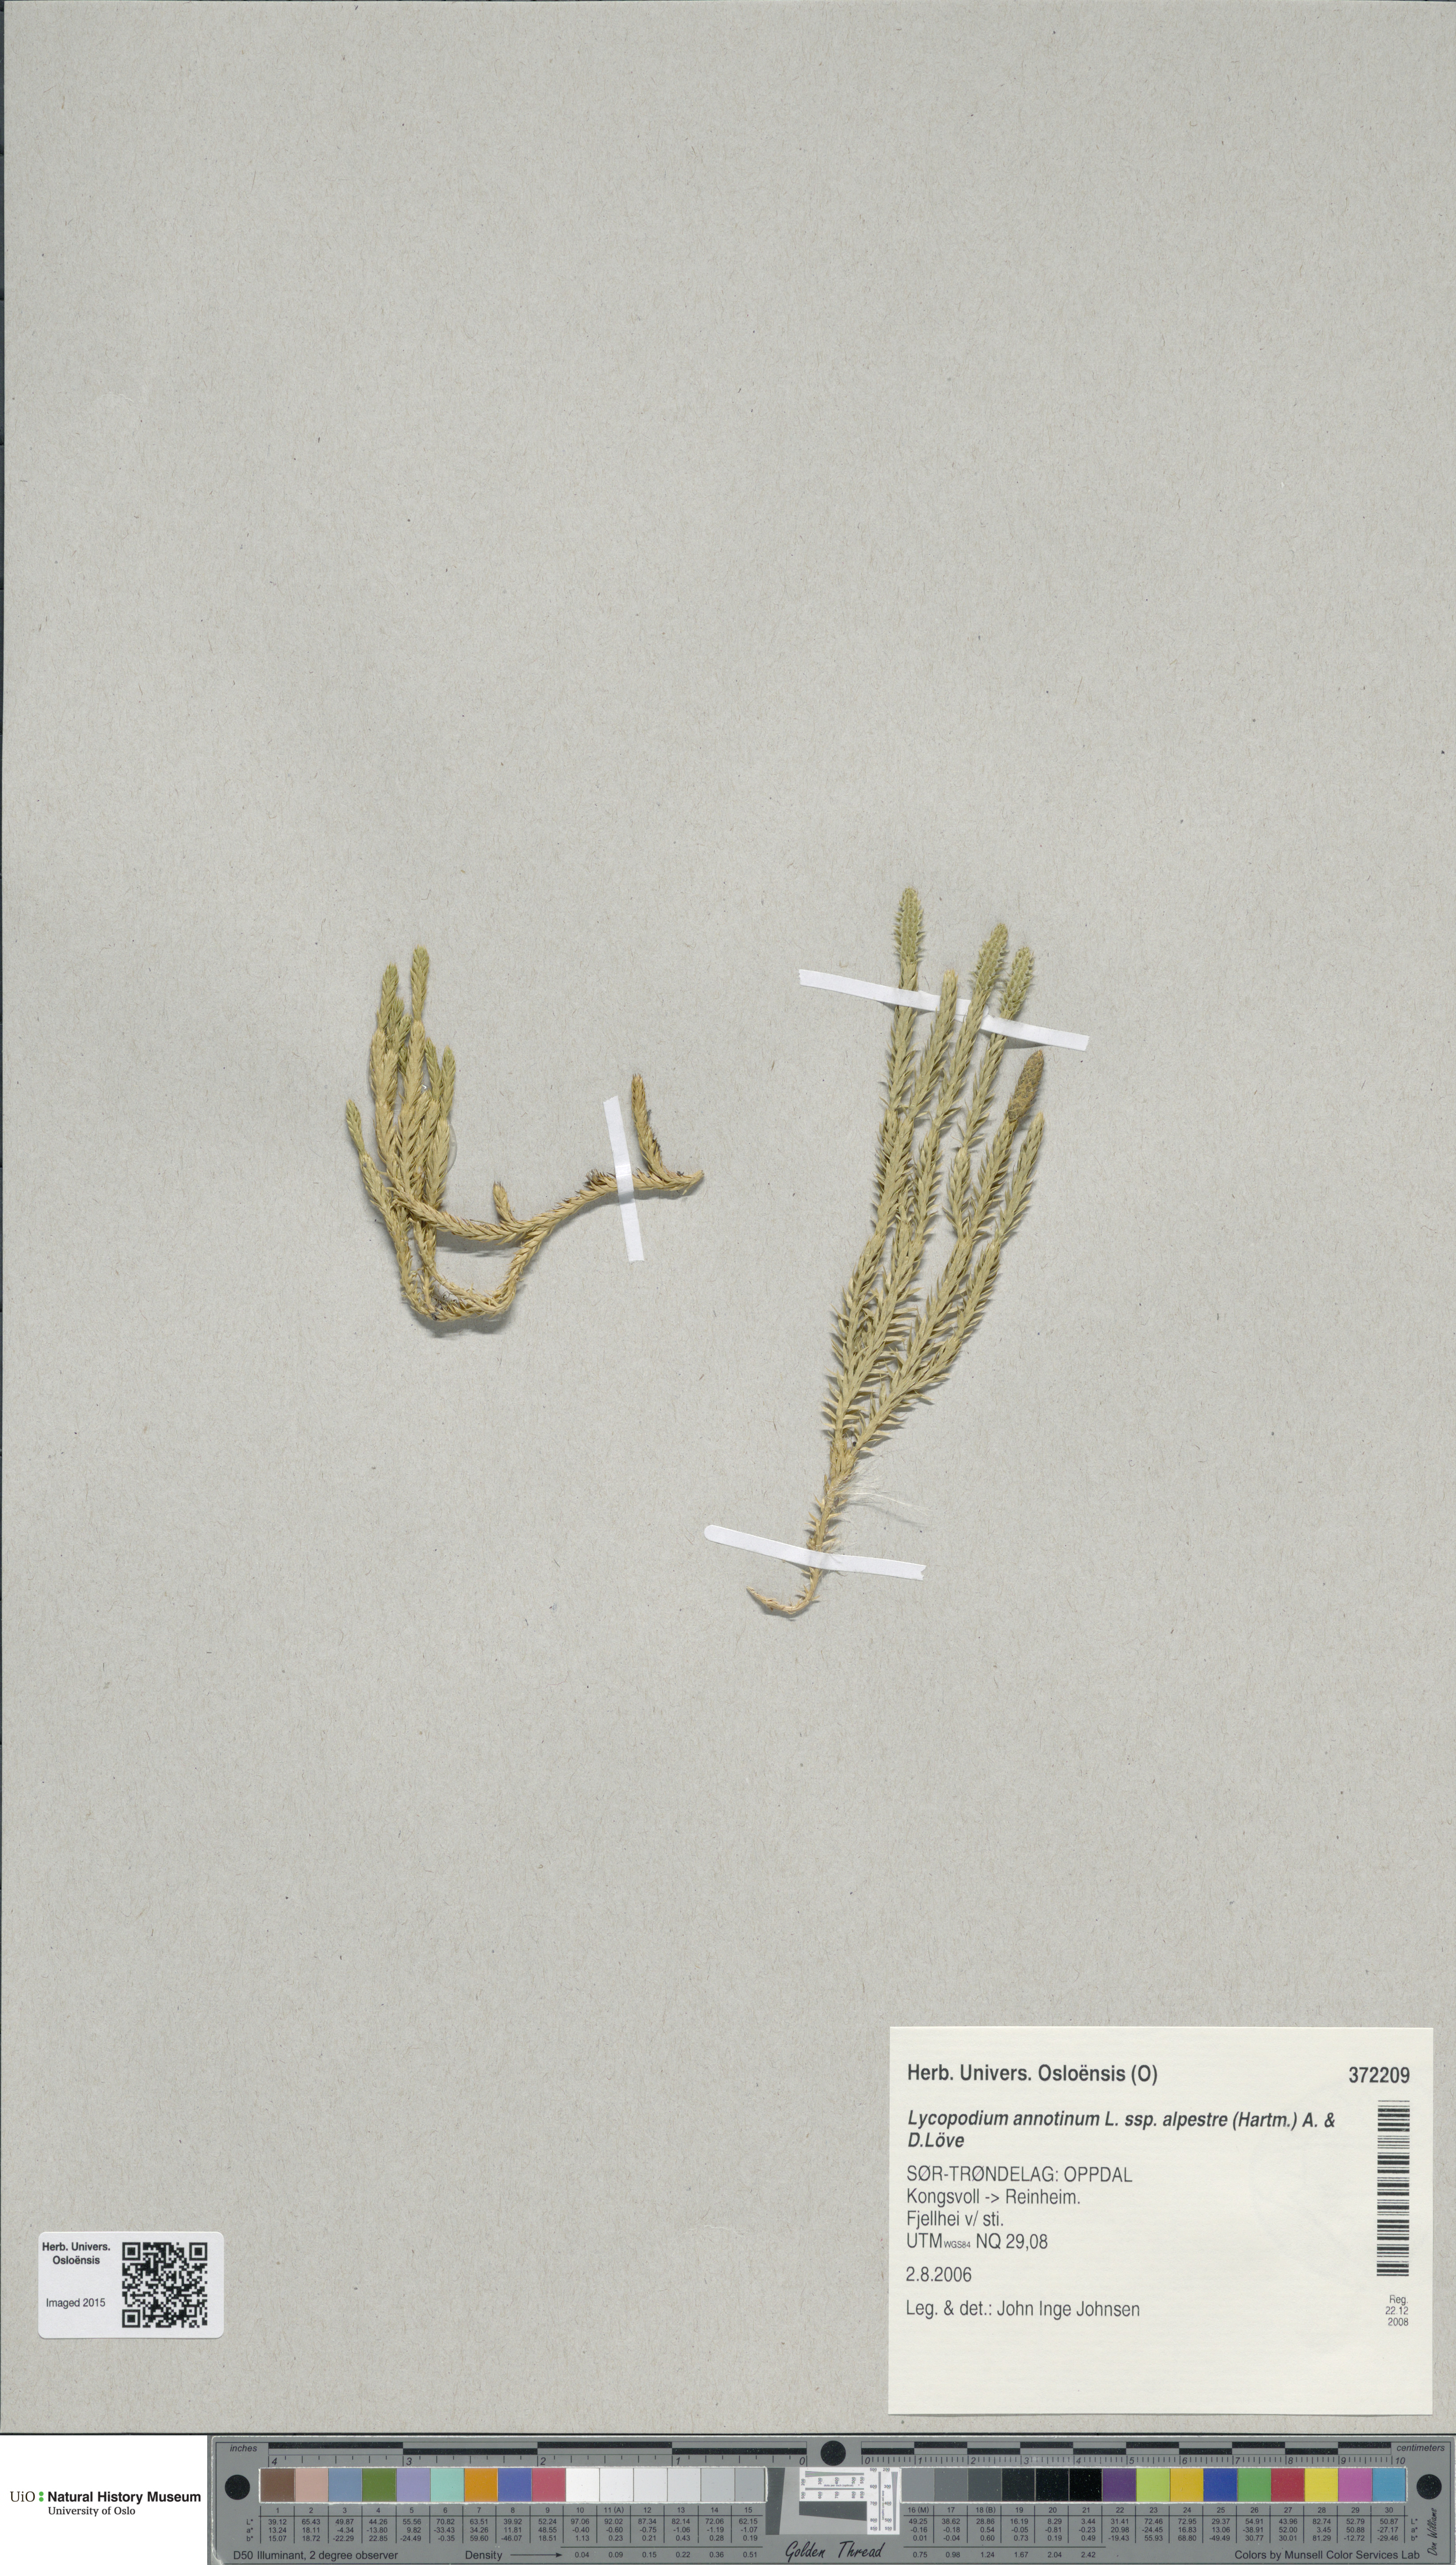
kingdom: Plantae
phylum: Tracheophyta
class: Lycopodiopsida
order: Lycopodiales
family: Lycopodiaceae
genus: Spinulum
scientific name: Spinulum annotinum
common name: Interrupted club-moss
